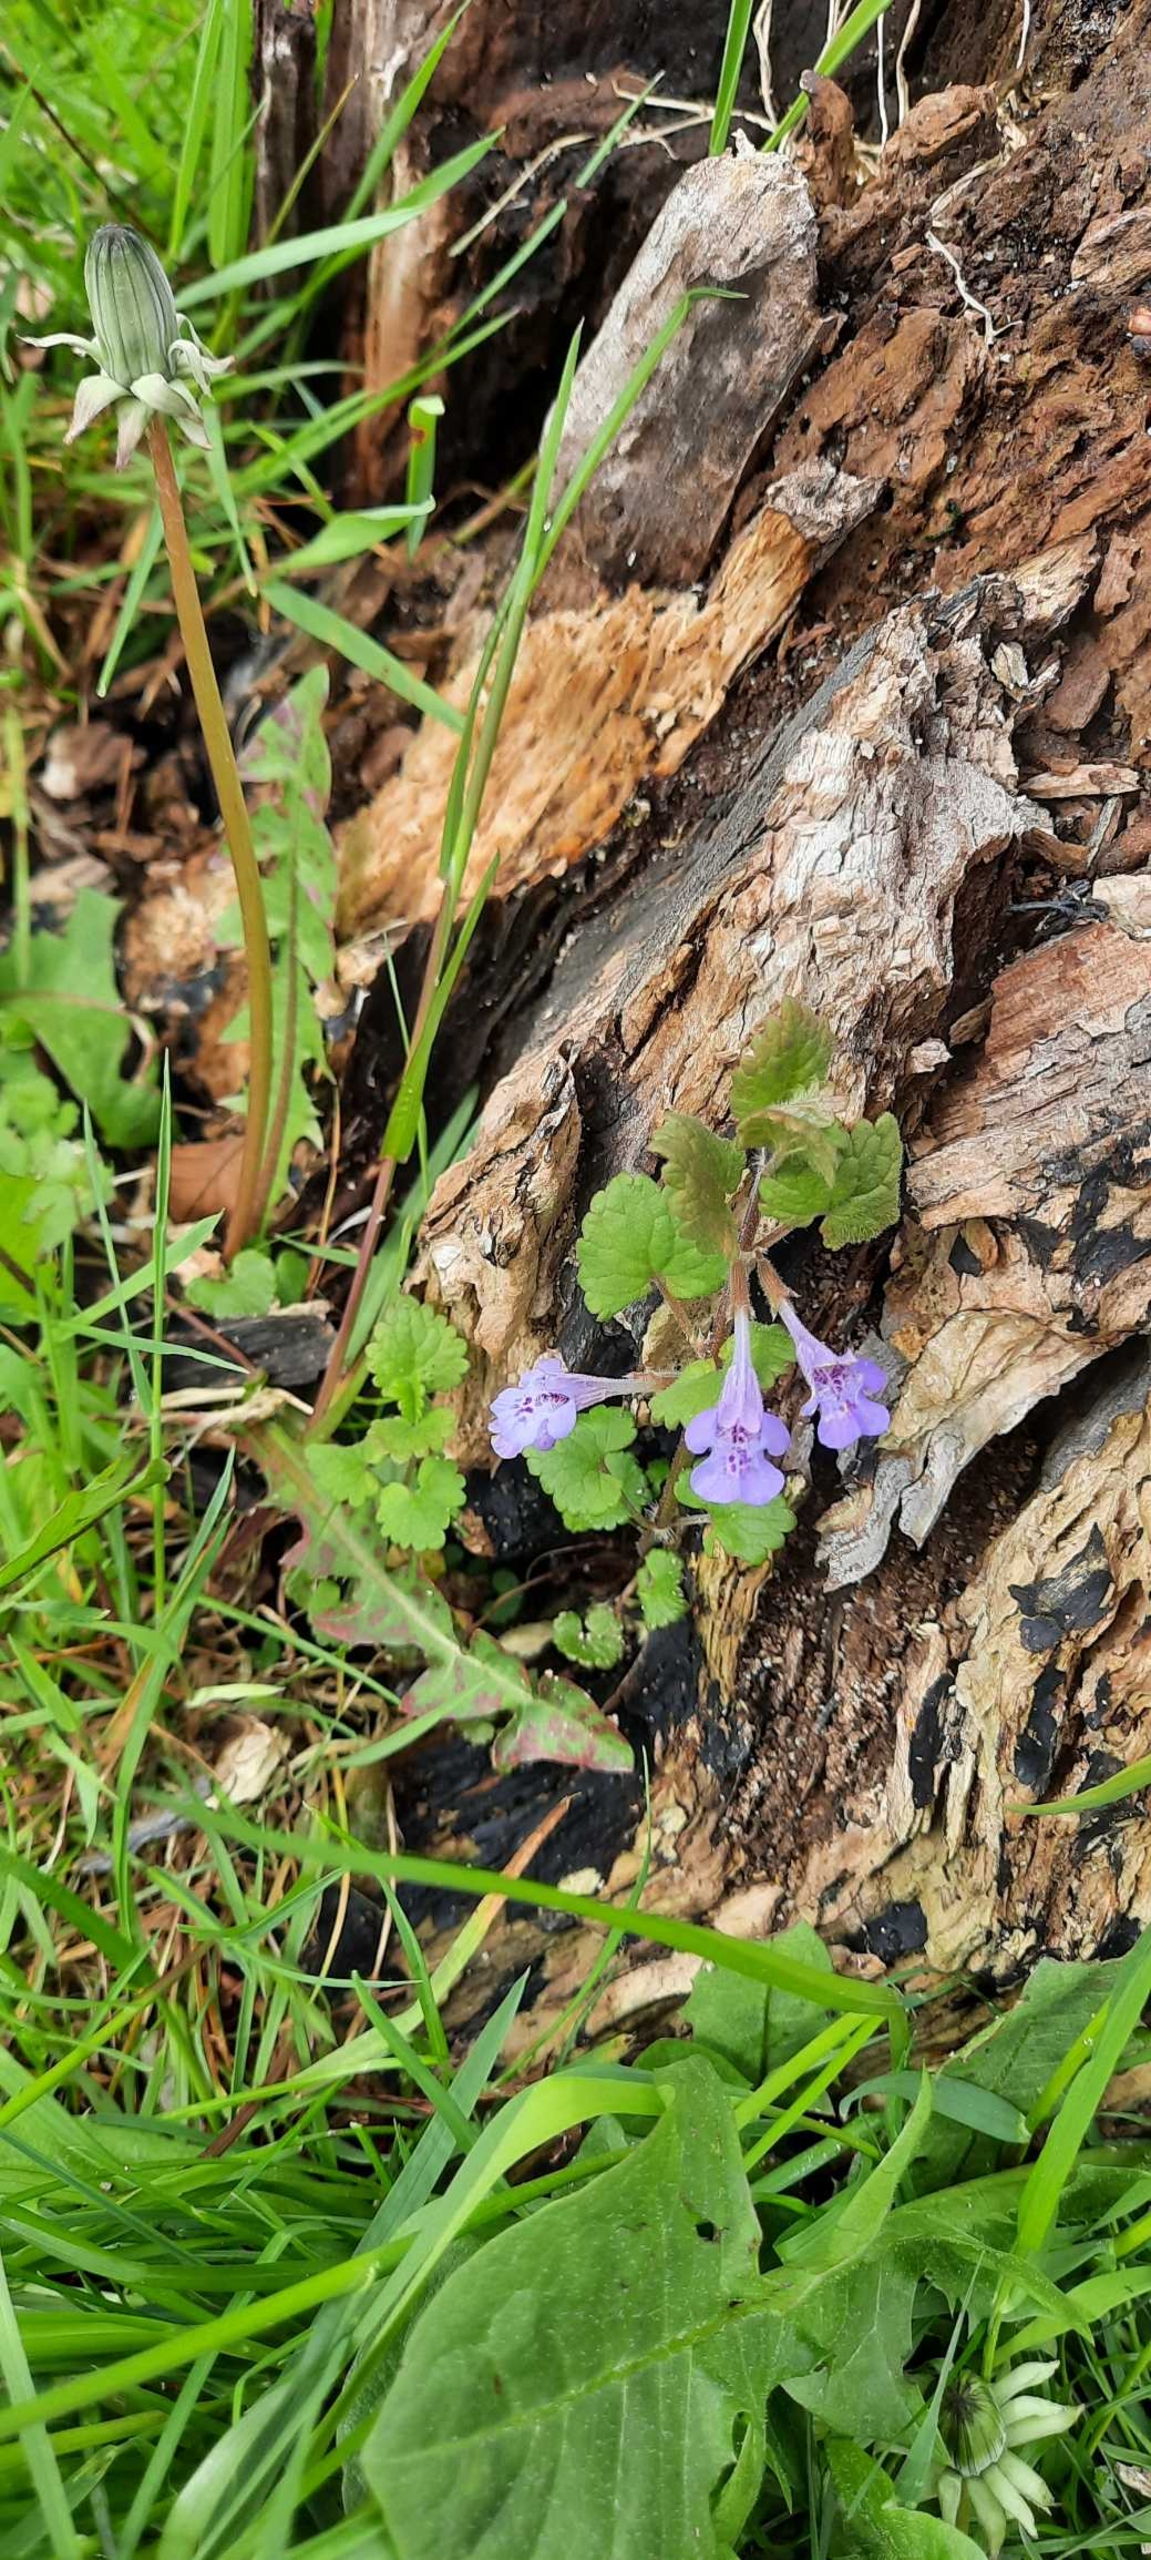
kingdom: Plantae
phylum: Tracheophyta
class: Magnoliopsida
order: Lamiales
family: Lamiaceae
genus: Glechoma
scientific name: Glechoma hederacea
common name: Korsknap
